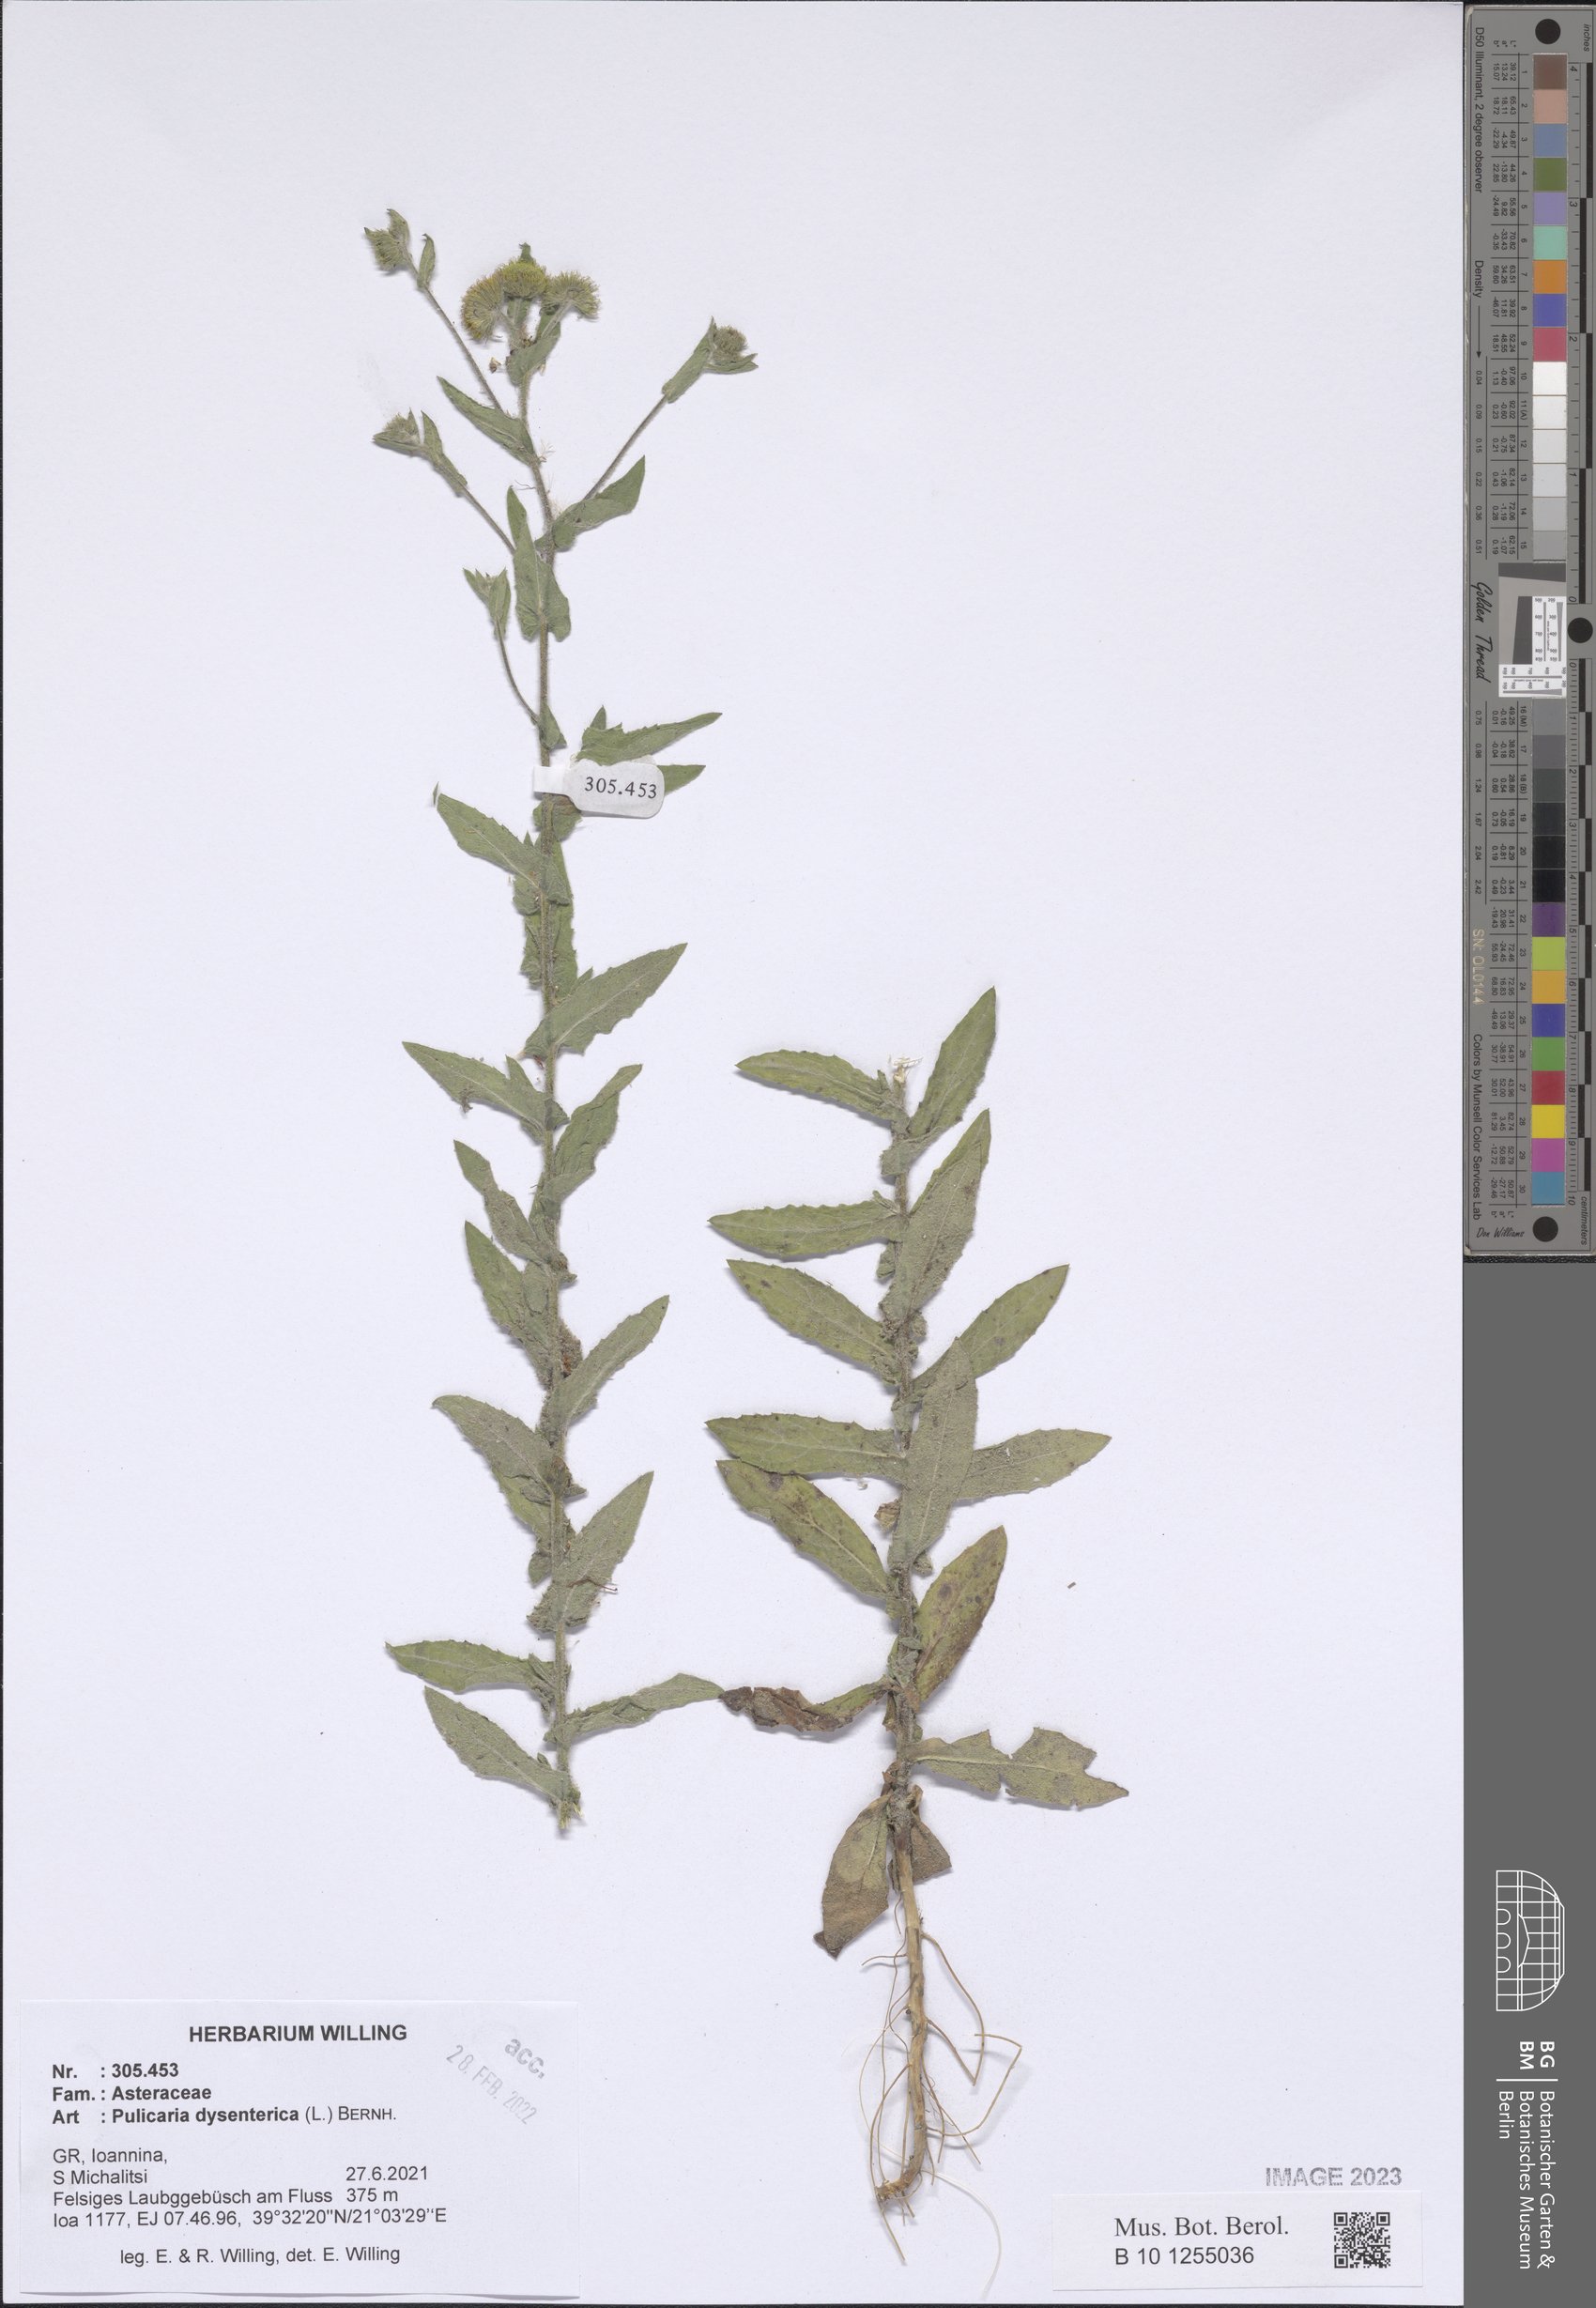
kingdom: Plantae
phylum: Tracheophyta
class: Magnoliopsida
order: Asterales
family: Asteraceae
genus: Pulicaria
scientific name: Pulicaria dysenterica
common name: Common fleabane
